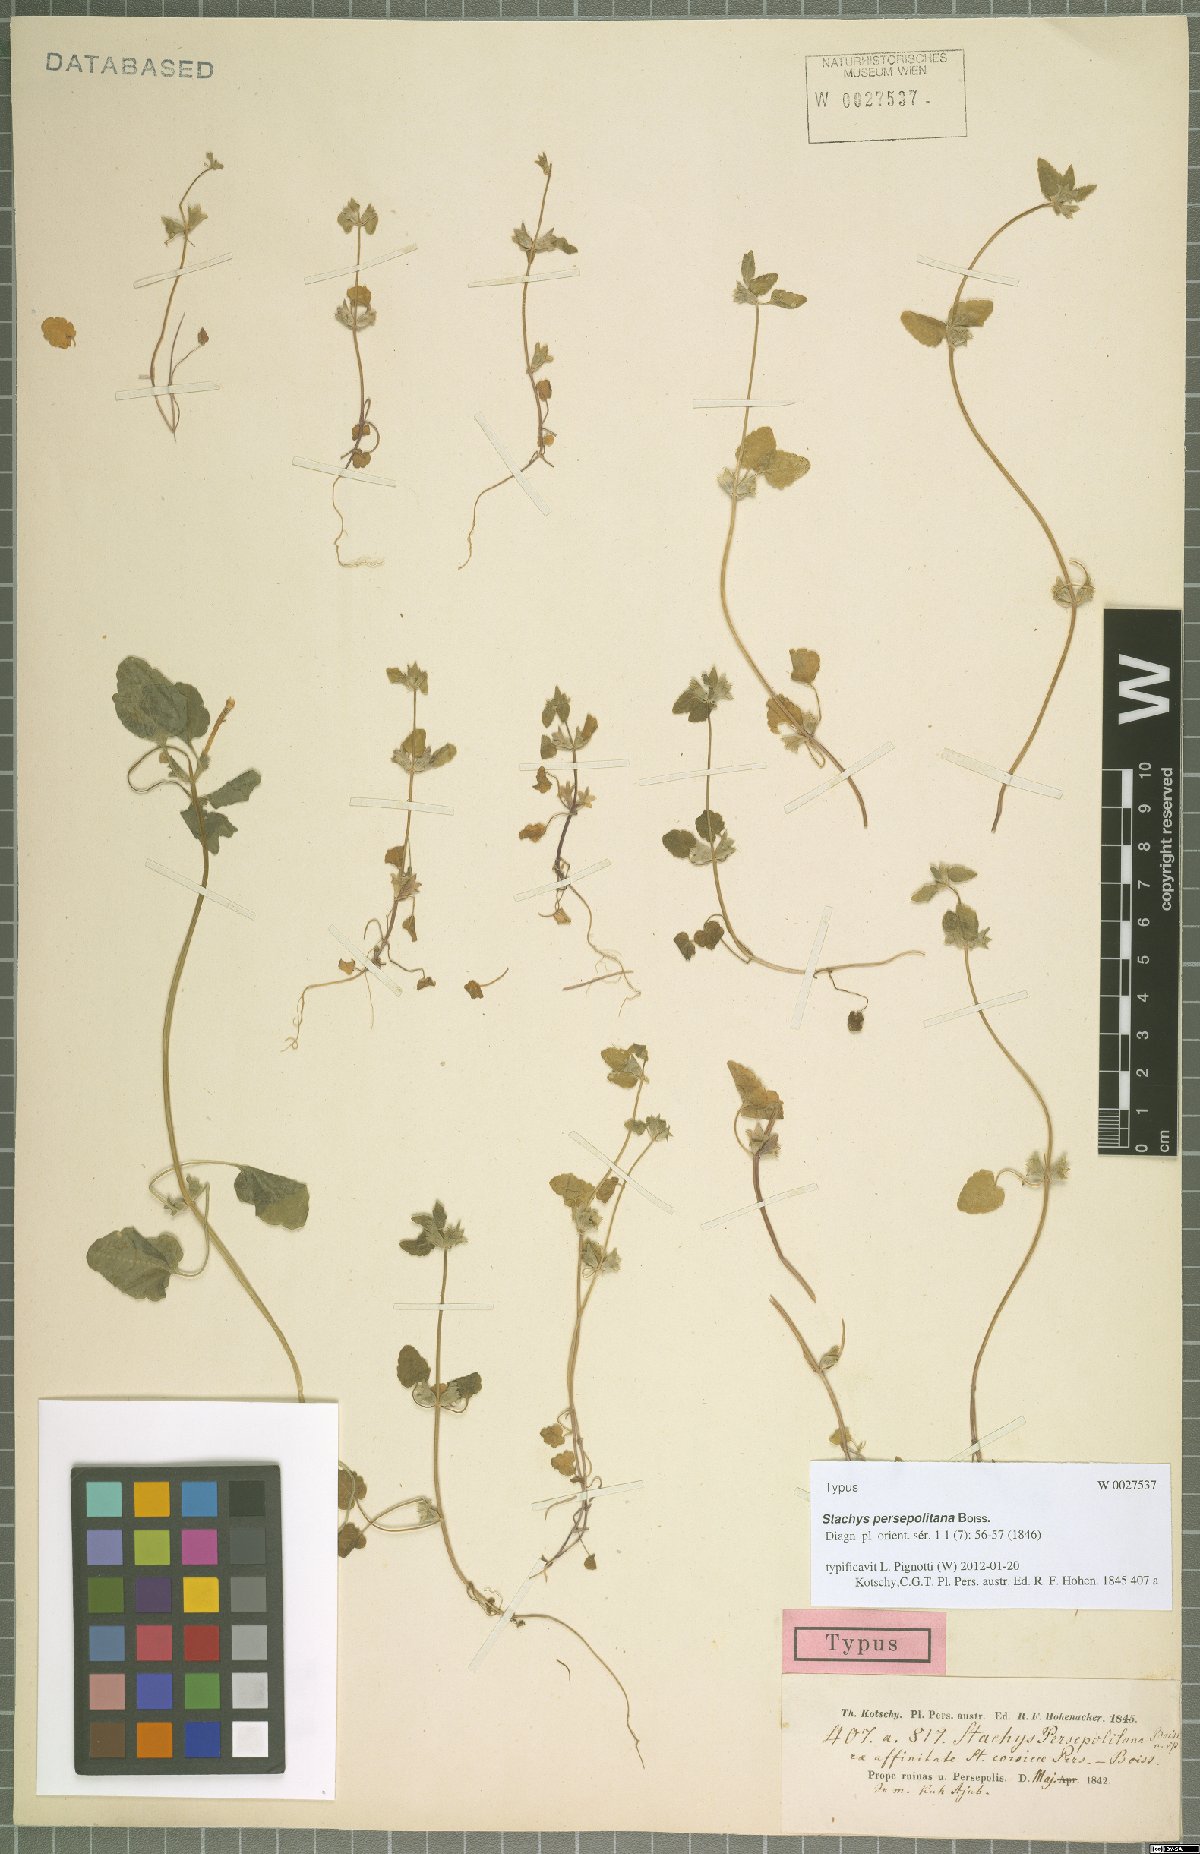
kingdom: Plantae
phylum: Tracheophyta
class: Magnoliopsida
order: Lamiales
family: Lamiaceae
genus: Lamium
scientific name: Lamium persepolitanum
